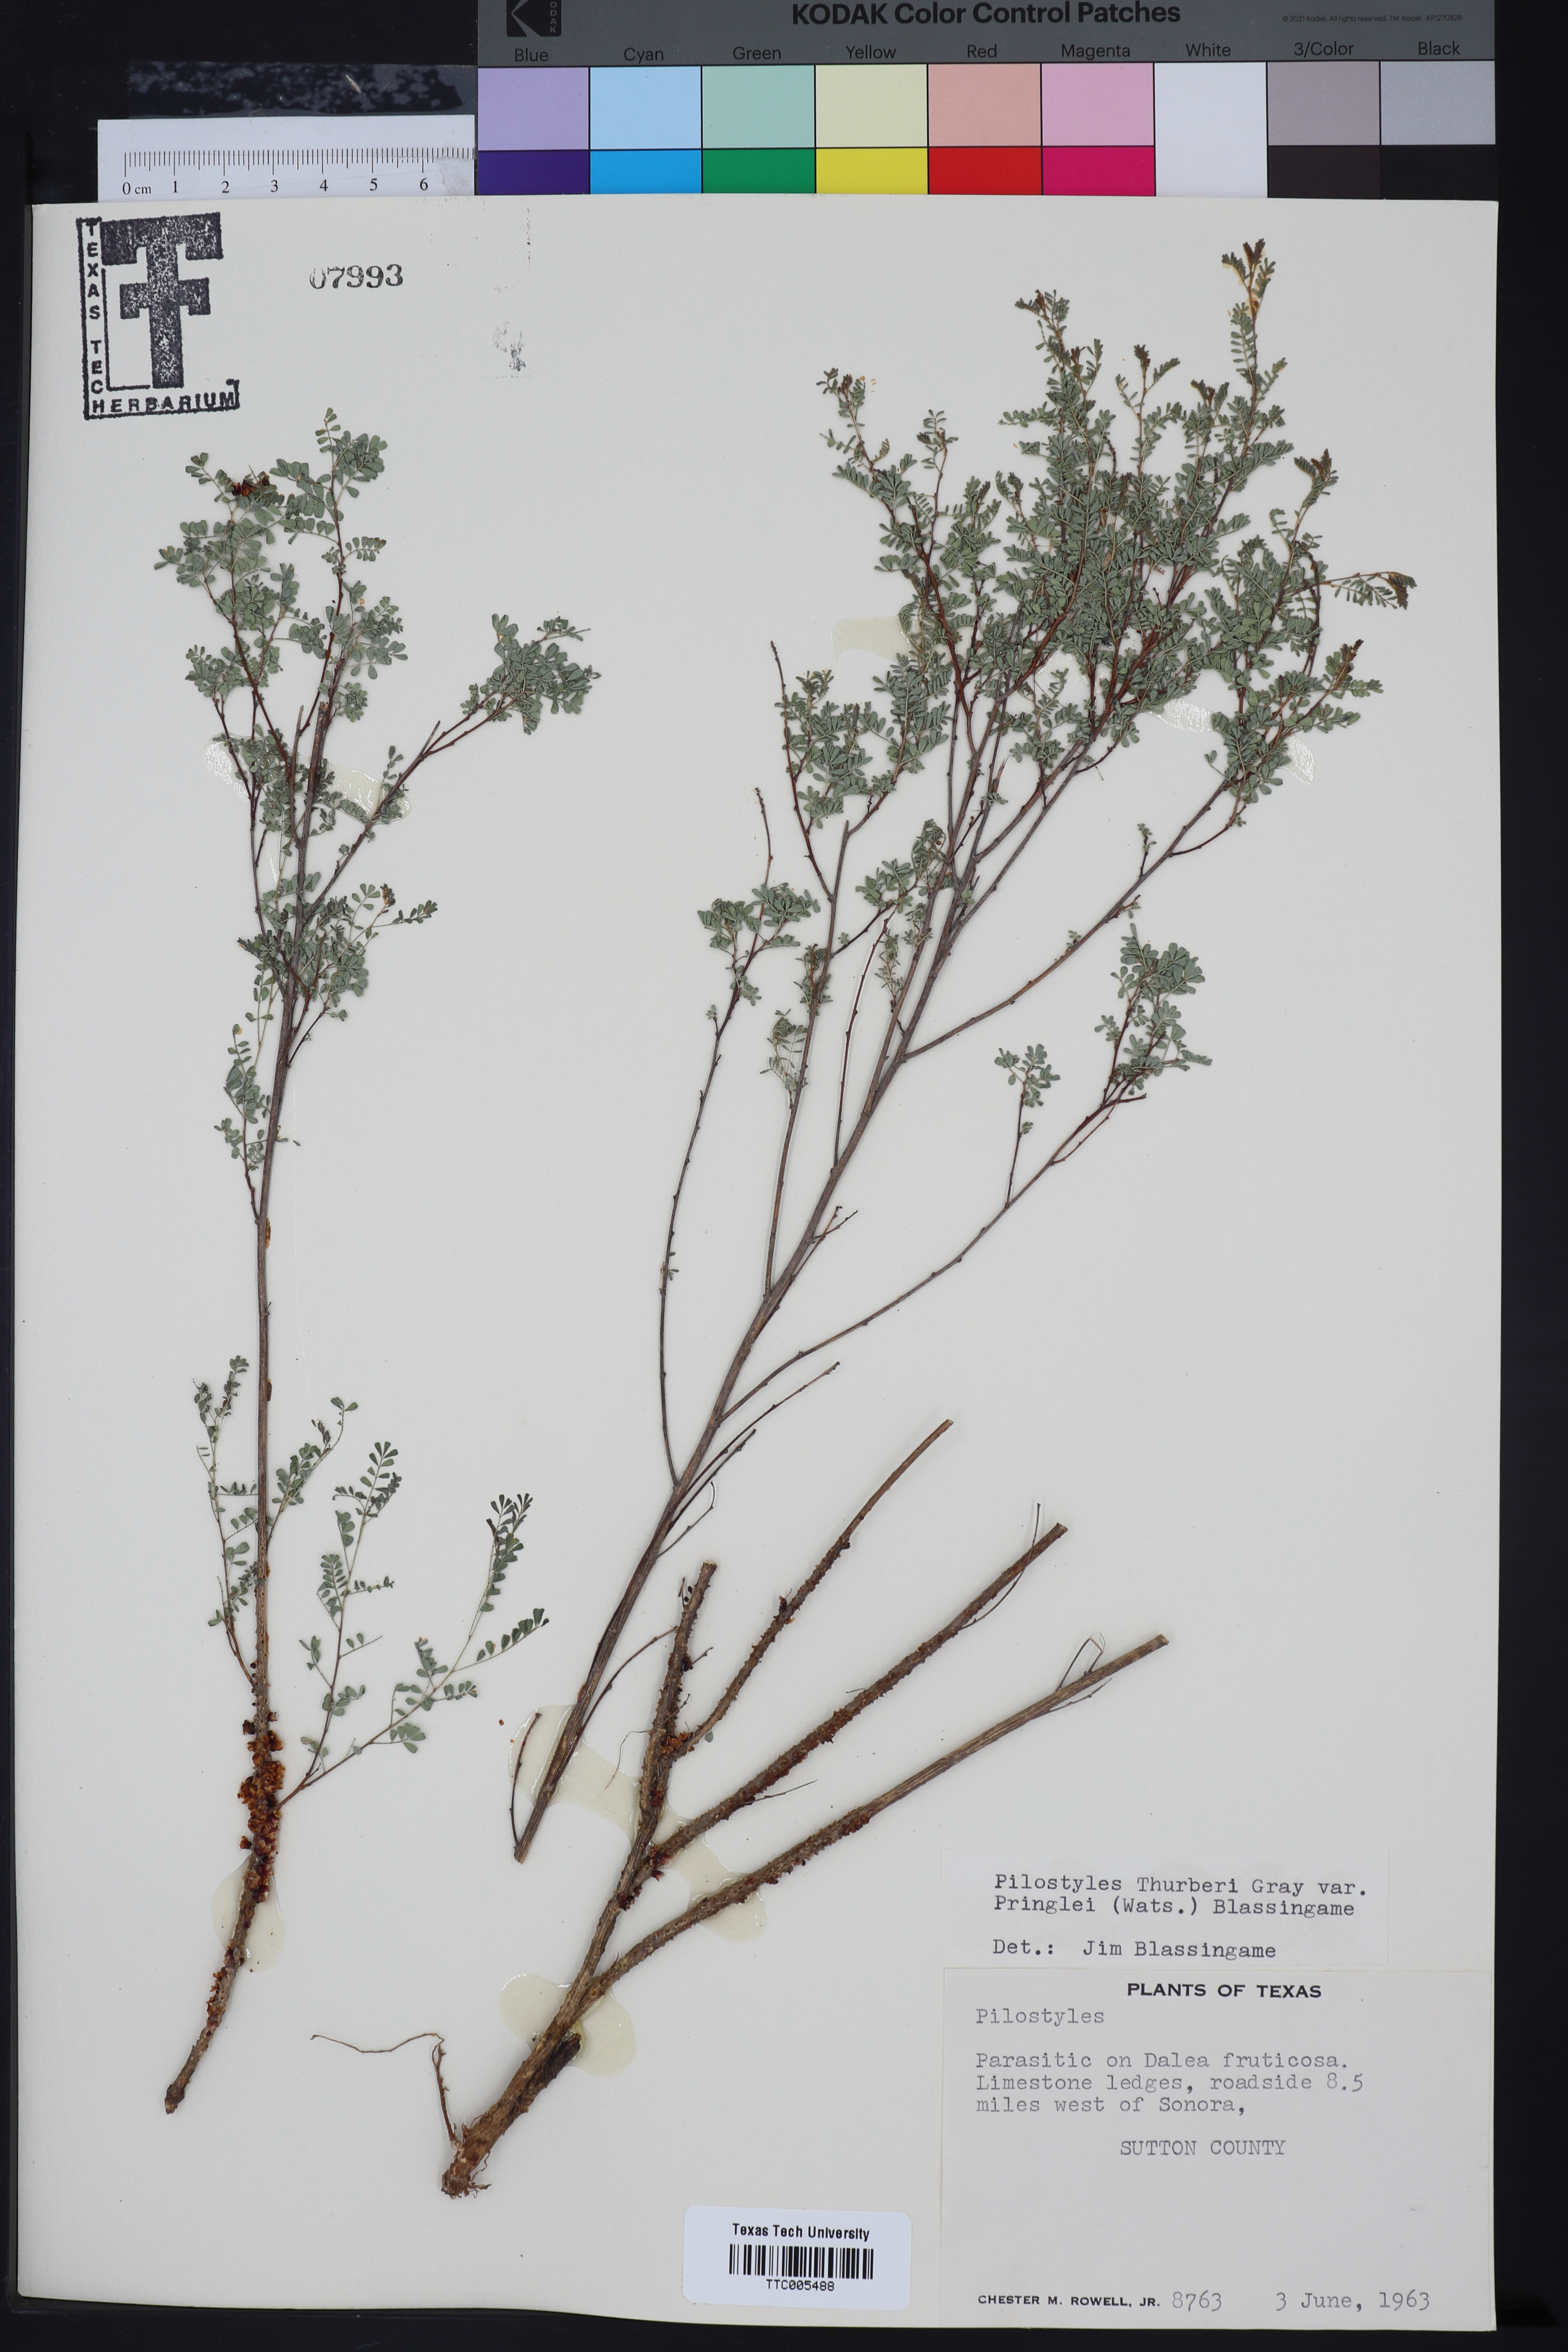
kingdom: Plantae
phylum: Tracheophyta
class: Magnoliopsida
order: Cucurbitales
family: Apodanthaceae
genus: Pilostyles
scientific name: Pilostyles
